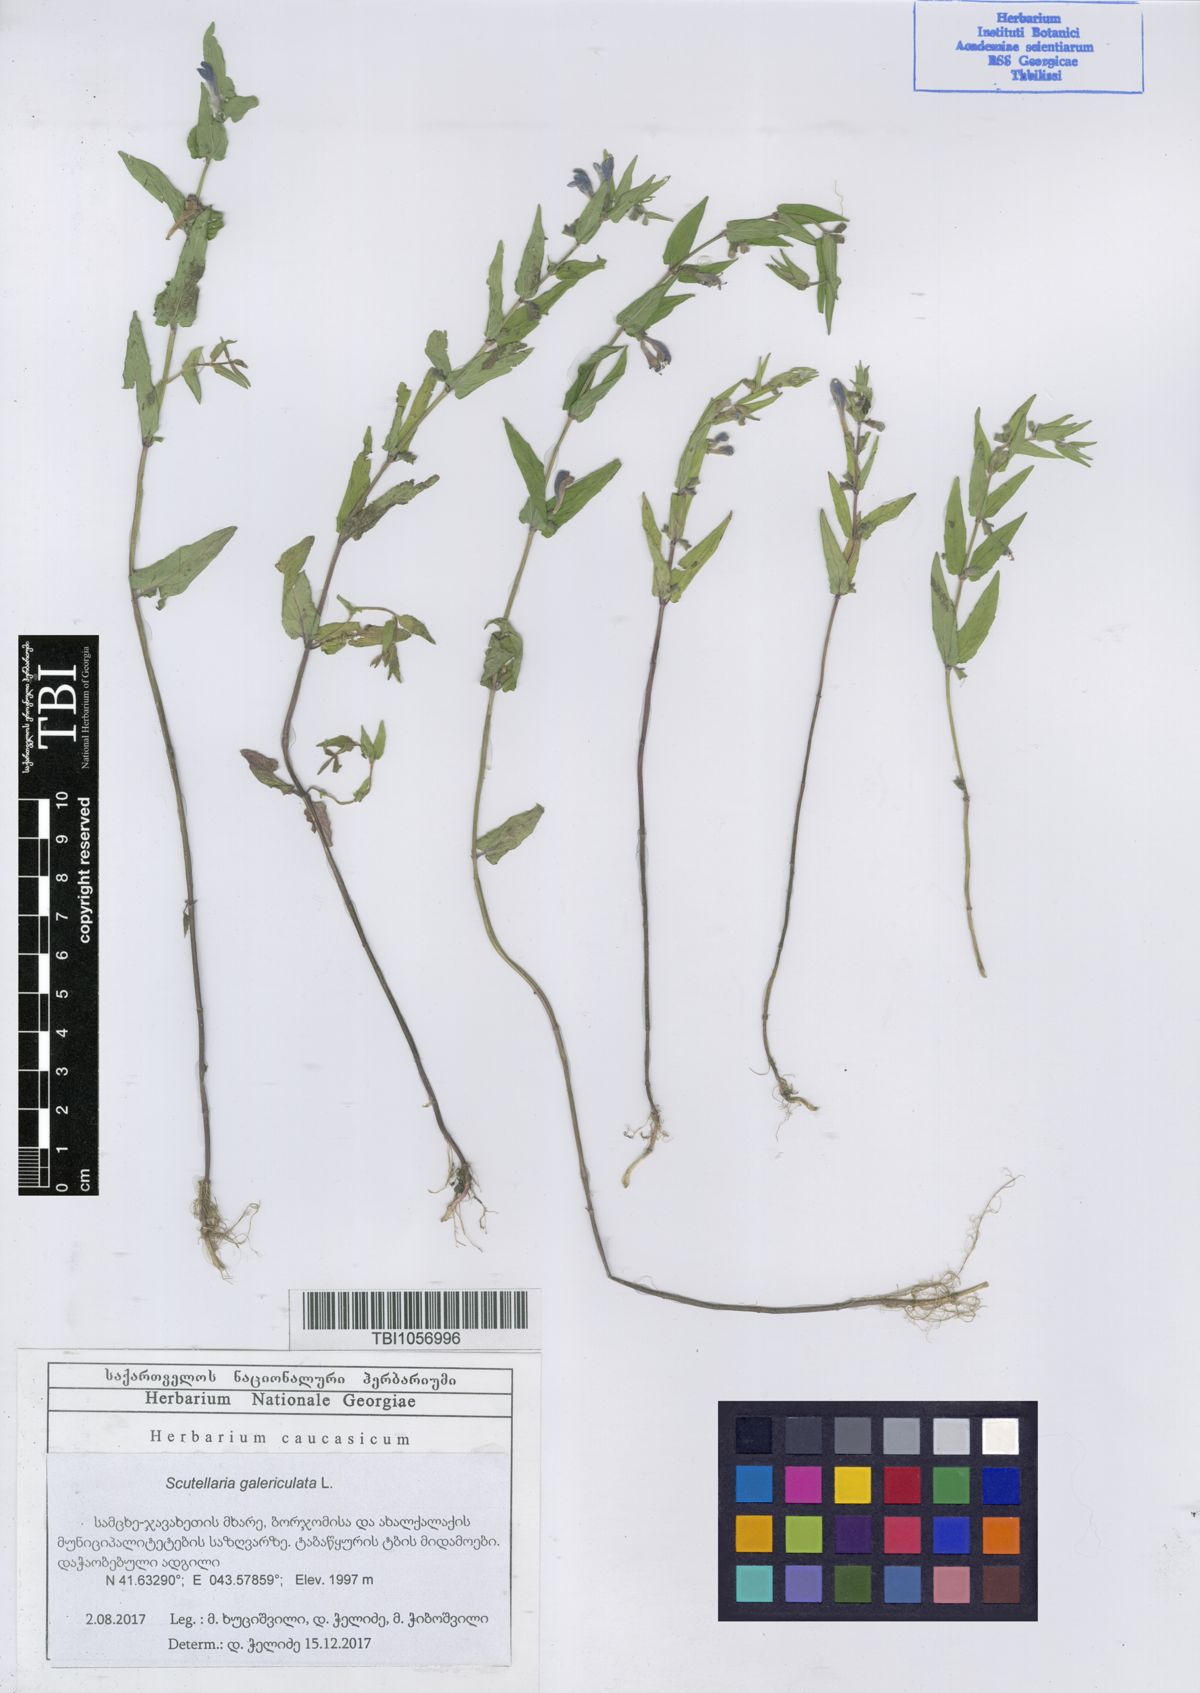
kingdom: Plantae
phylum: Tracheophyta
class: Magnoliopsida
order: Lamiales
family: Lamiaceae
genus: Scutellaria
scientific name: Scutellaria galericulata
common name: Skullcap
